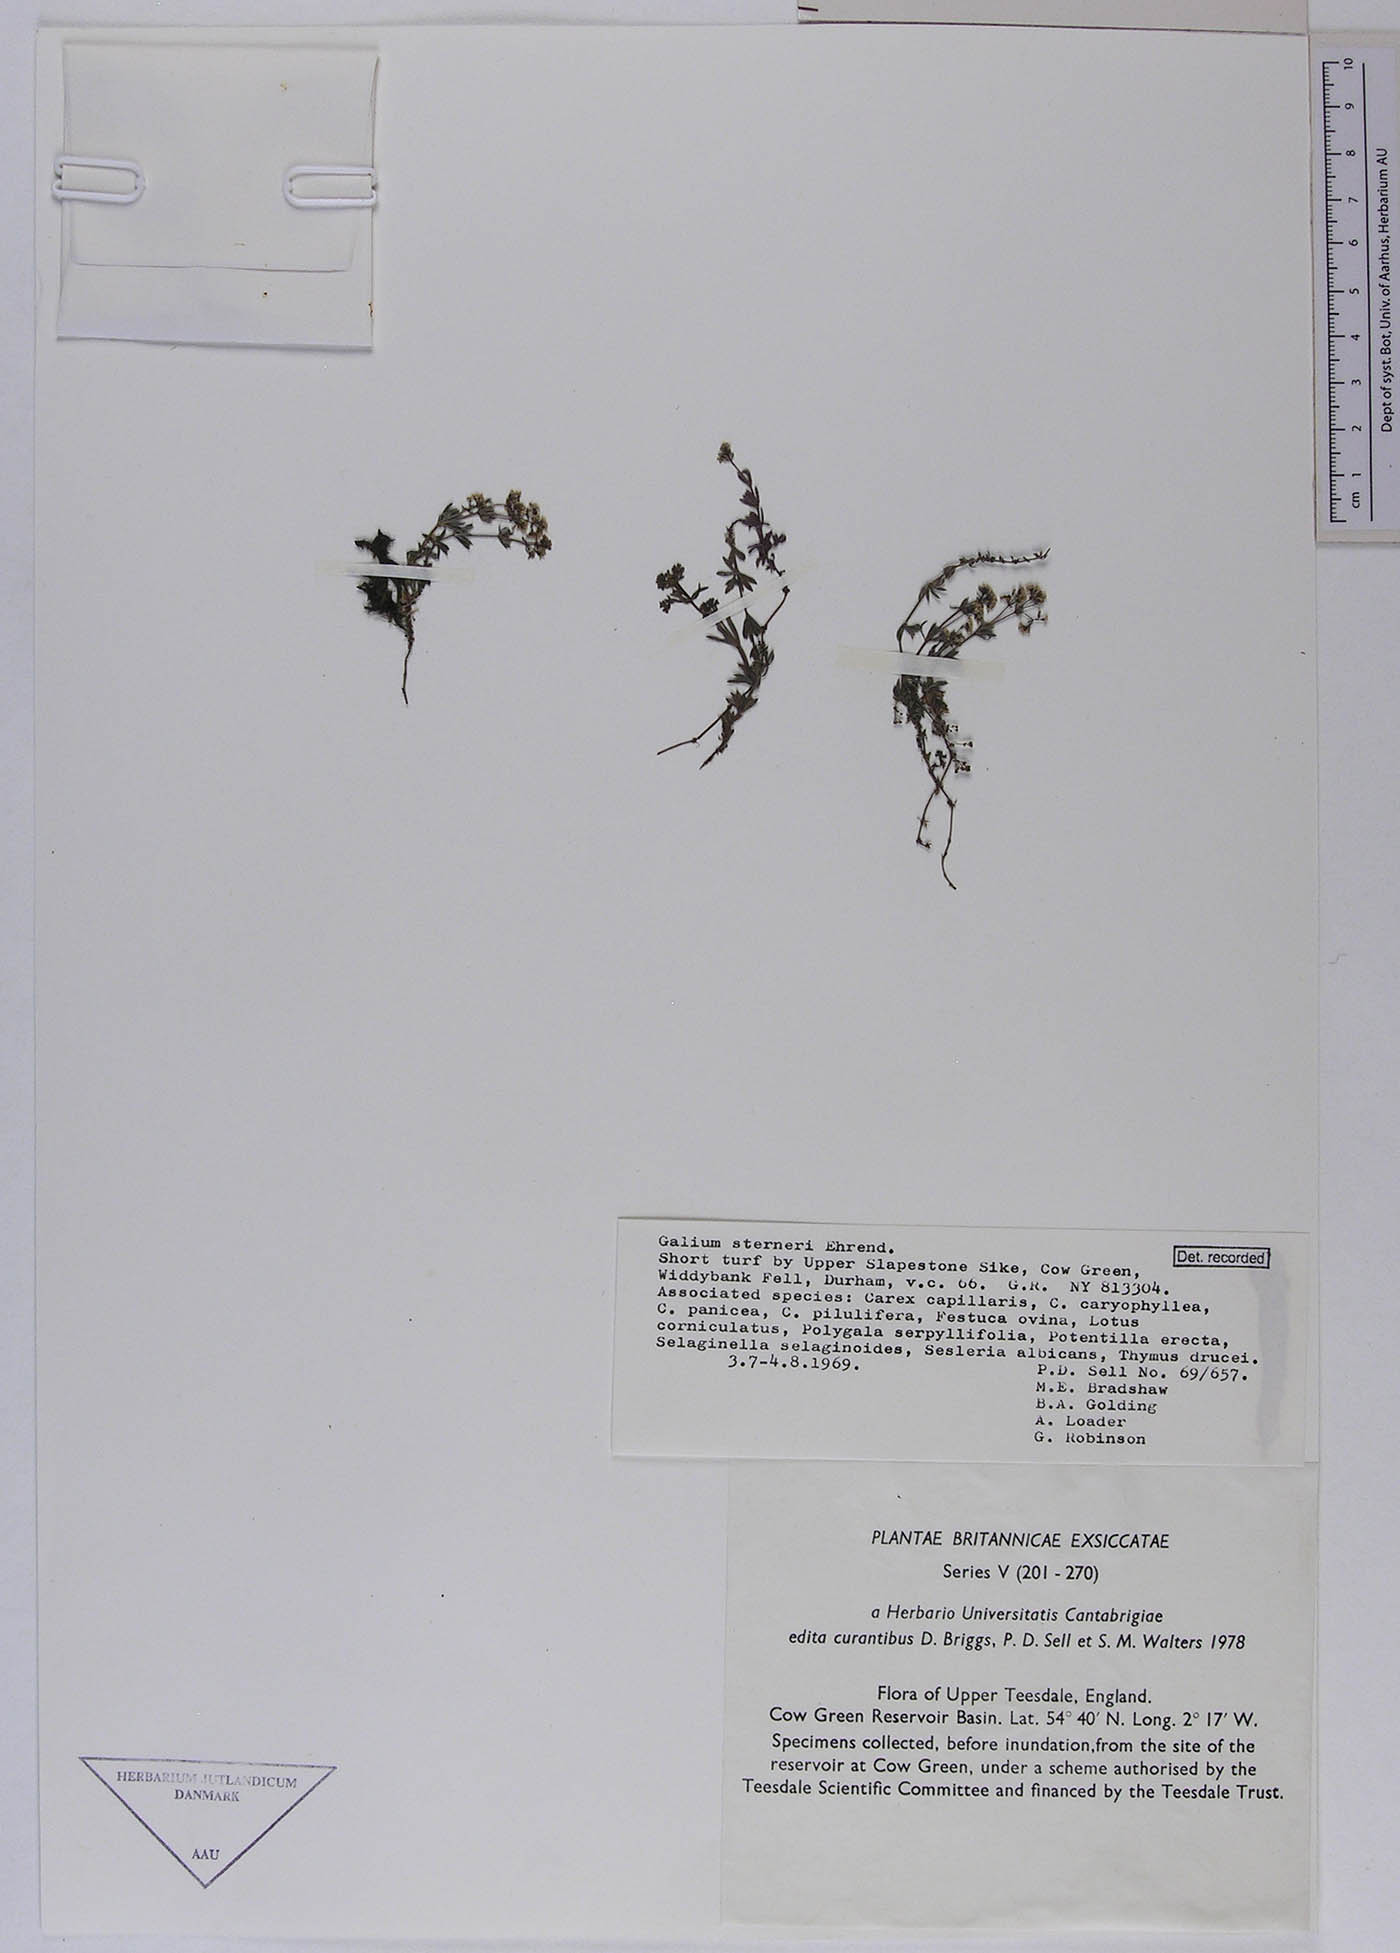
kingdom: Plantae
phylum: Tracheophyta
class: Magnoliopsida
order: Gentianales
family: Rubiaceae
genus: Galium
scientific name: Galium sterneri
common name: Limestone bedstraw
